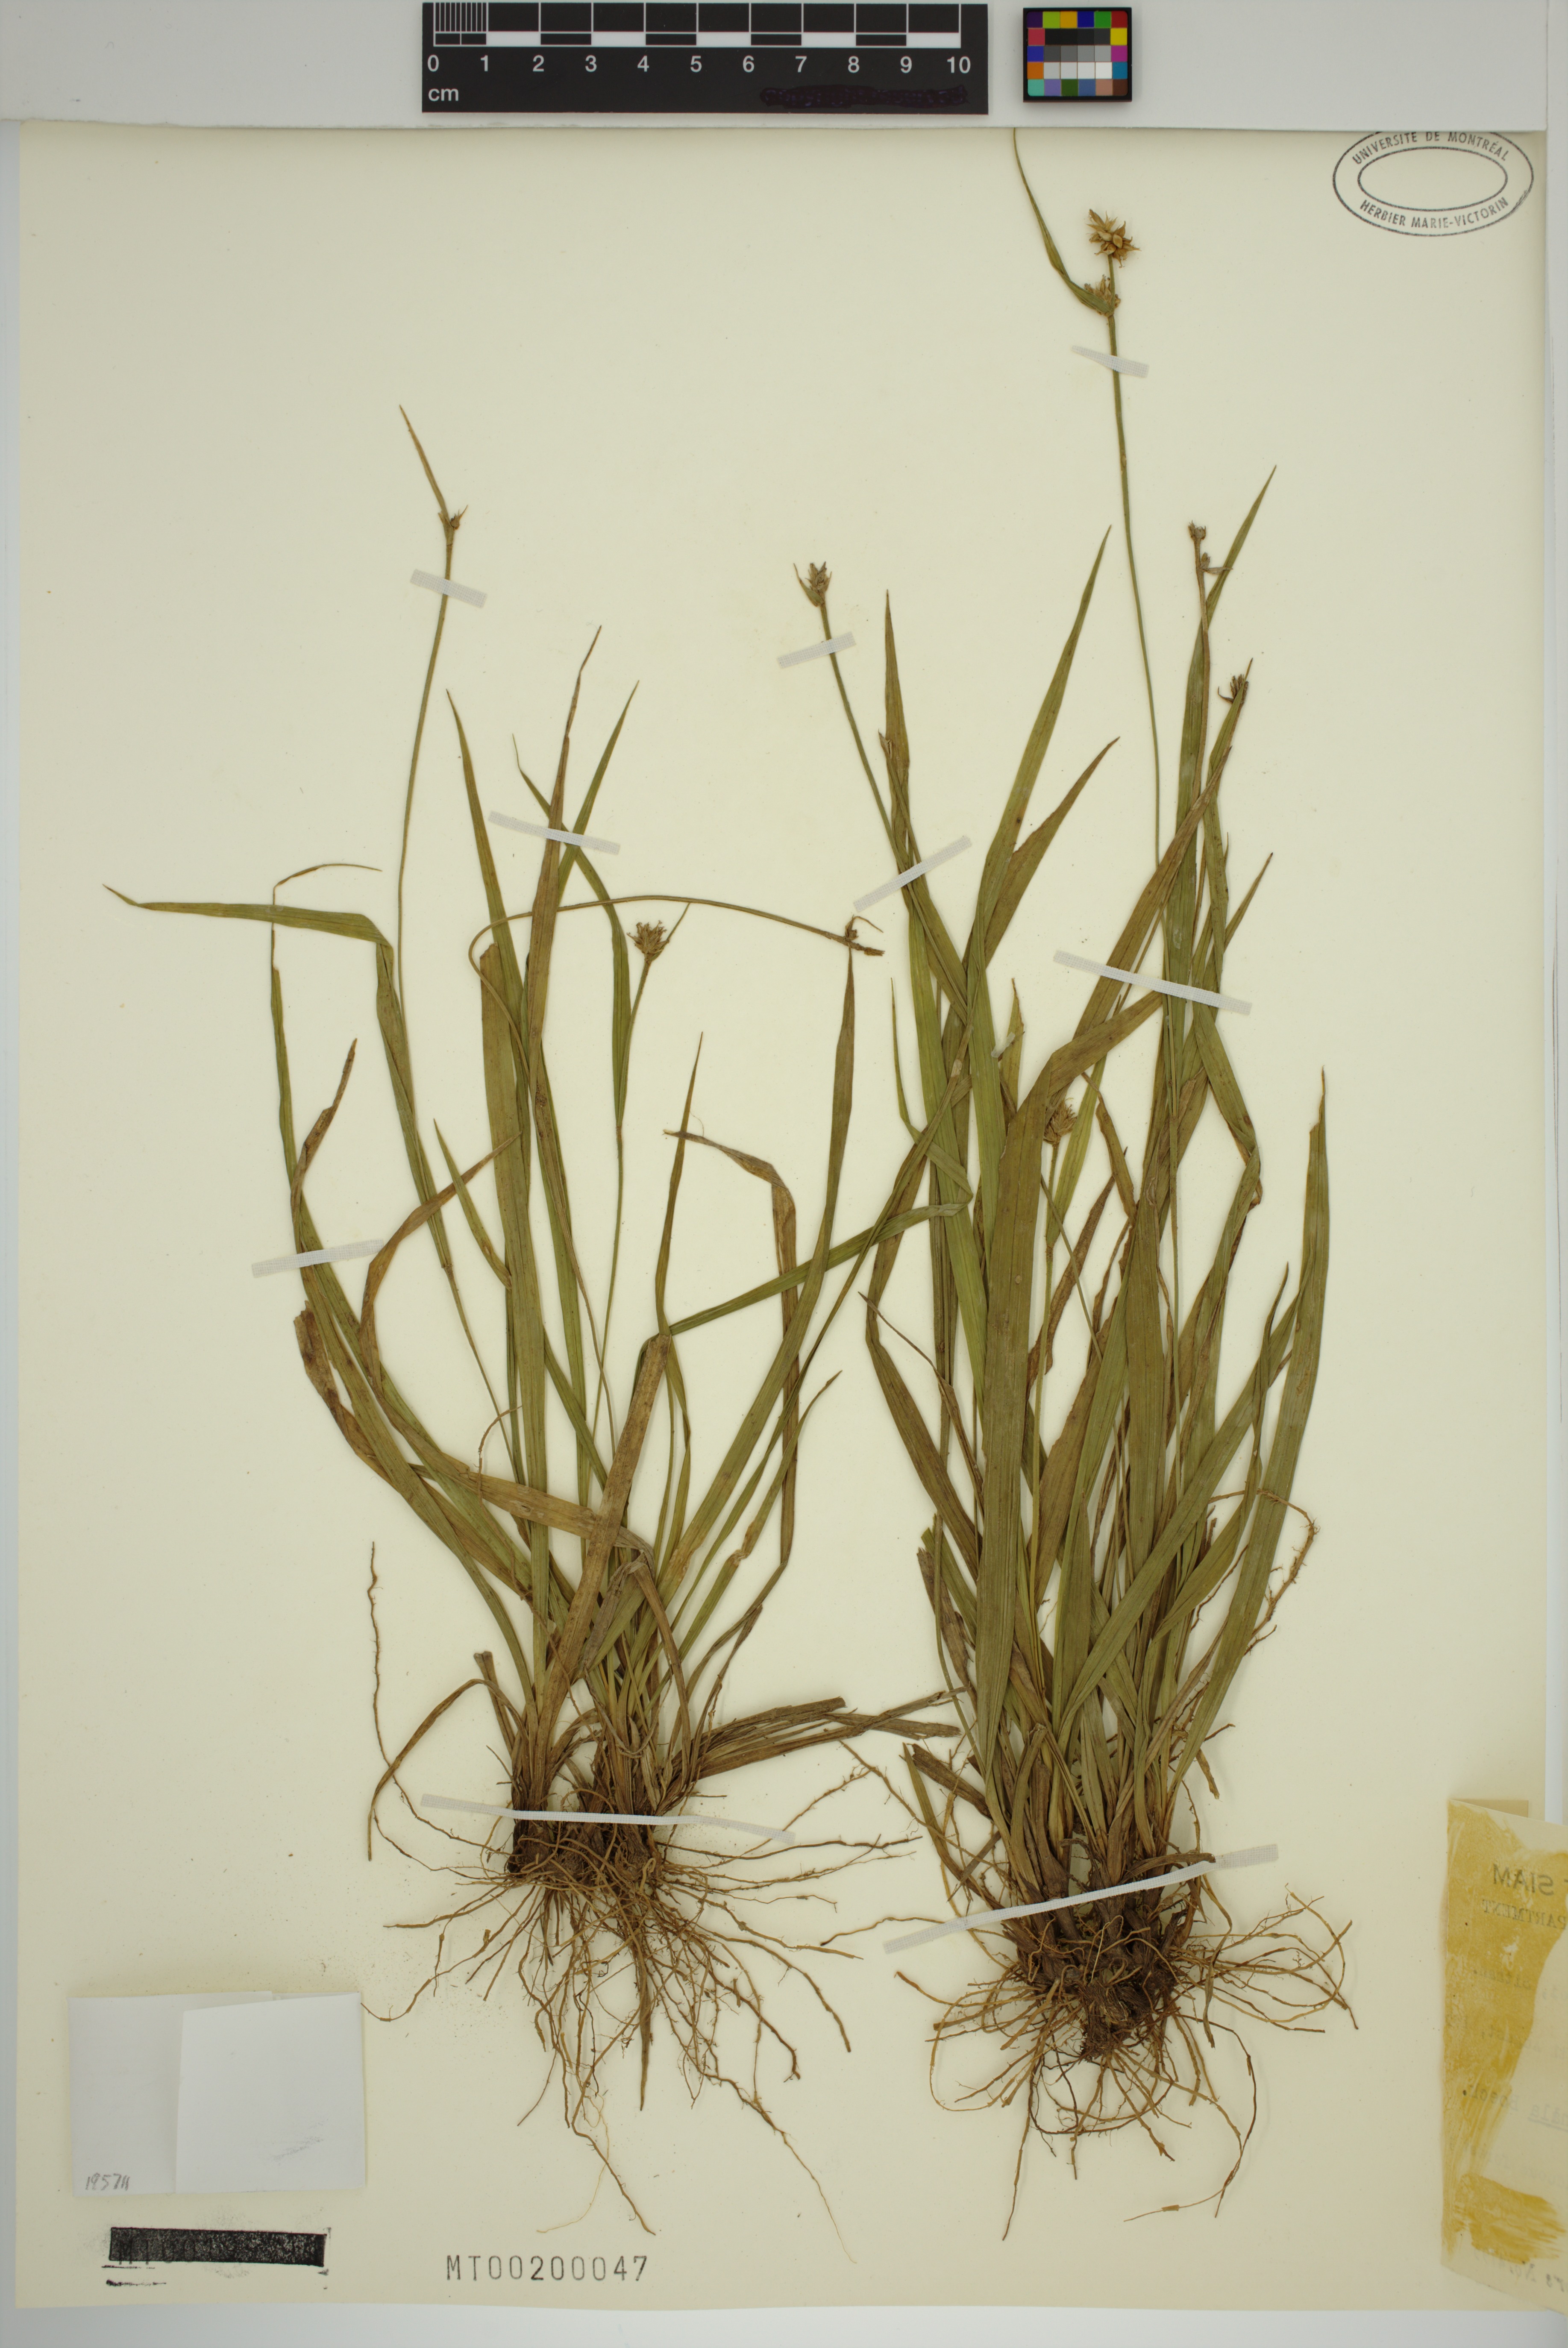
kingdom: Plantae
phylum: Tracheophyta
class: Liliopsida
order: Poales
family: Cyperaceae
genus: Carex
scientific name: Carex tricephala
